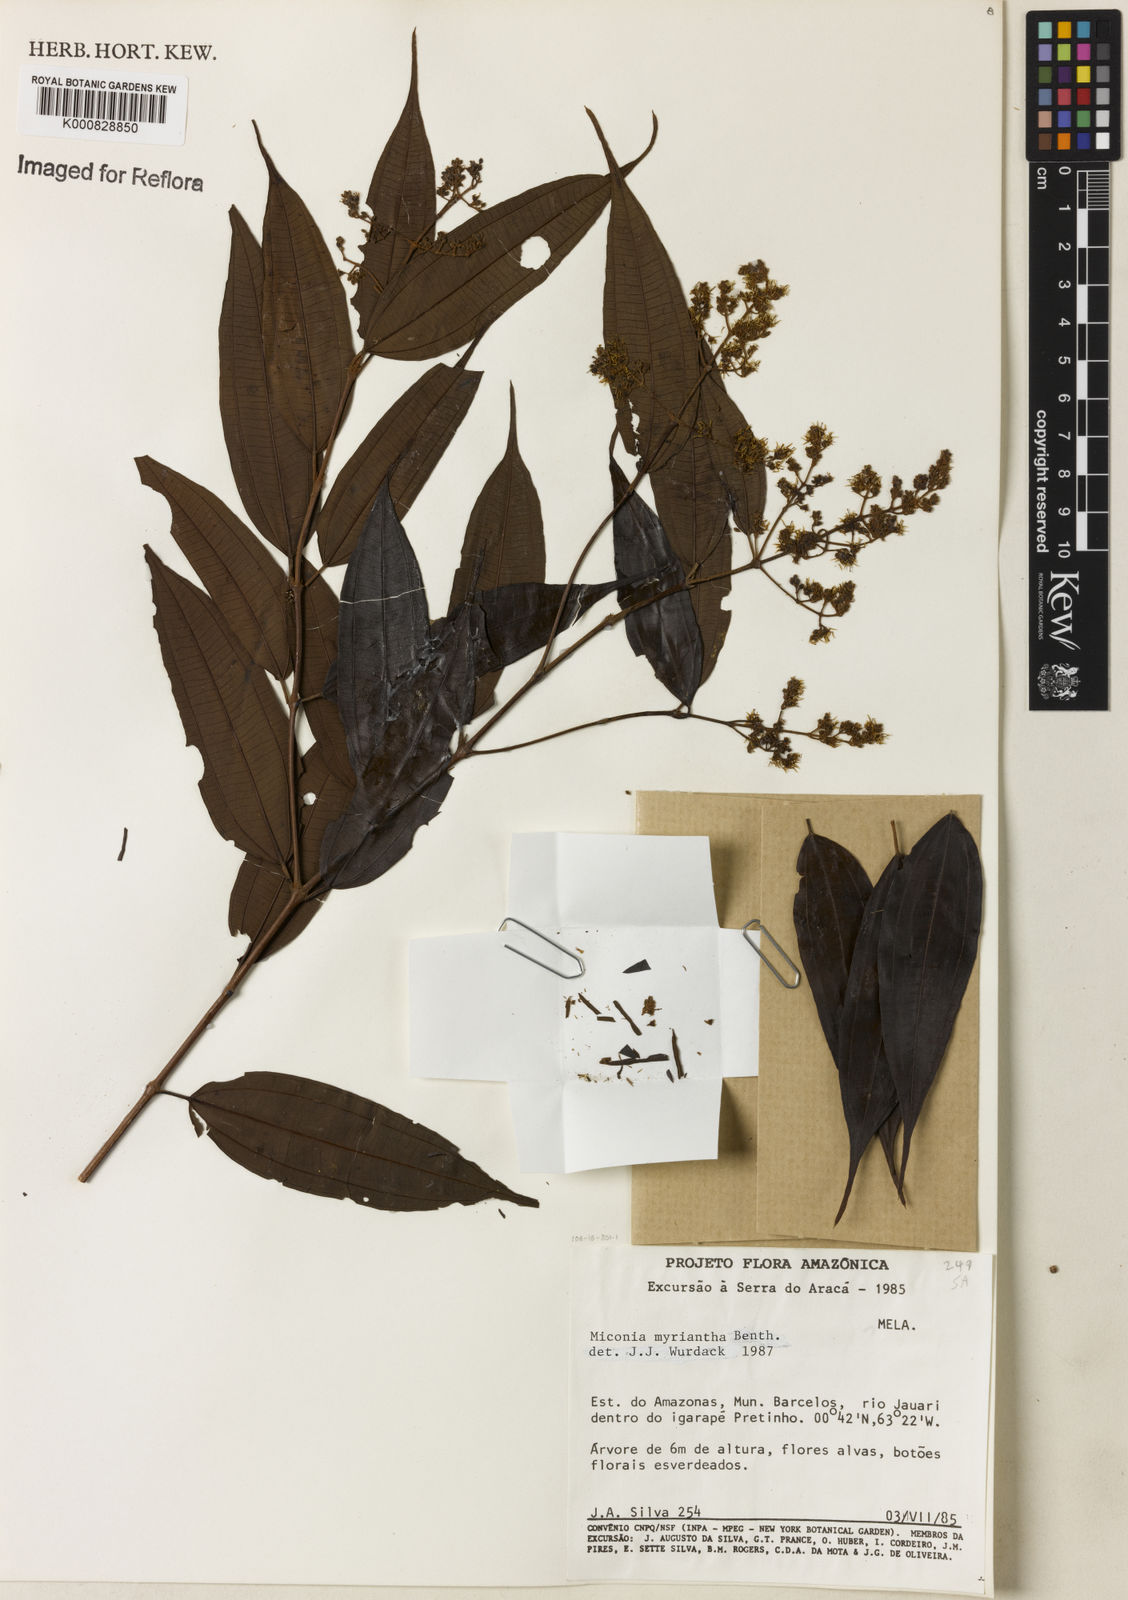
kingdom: Plantae
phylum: Tracheophyta
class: Magnoliopsida
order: Myrtales
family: Melastomataceae
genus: Miconia
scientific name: Miconia myriantha
